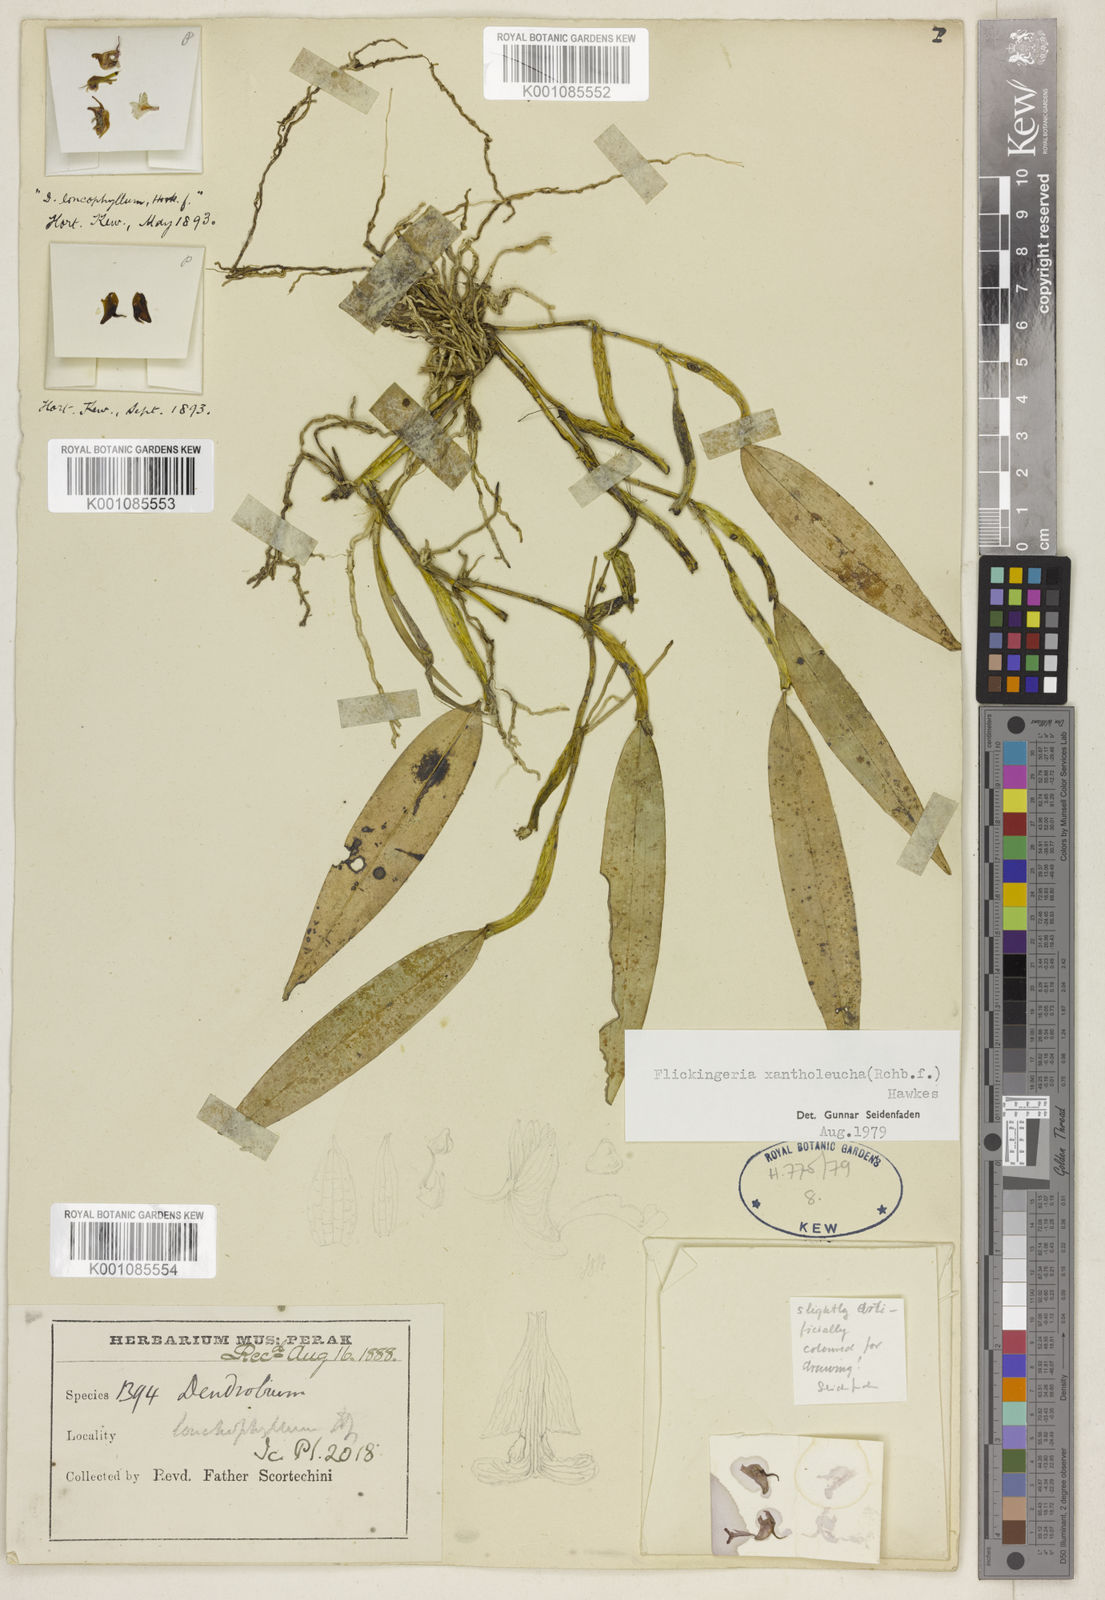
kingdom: Plantae
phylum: Tracheophyta
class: Liliopsida
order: Asparagales
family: Orchidaceae
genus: Dendrobium
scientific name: Dendrobium xantholeucum
